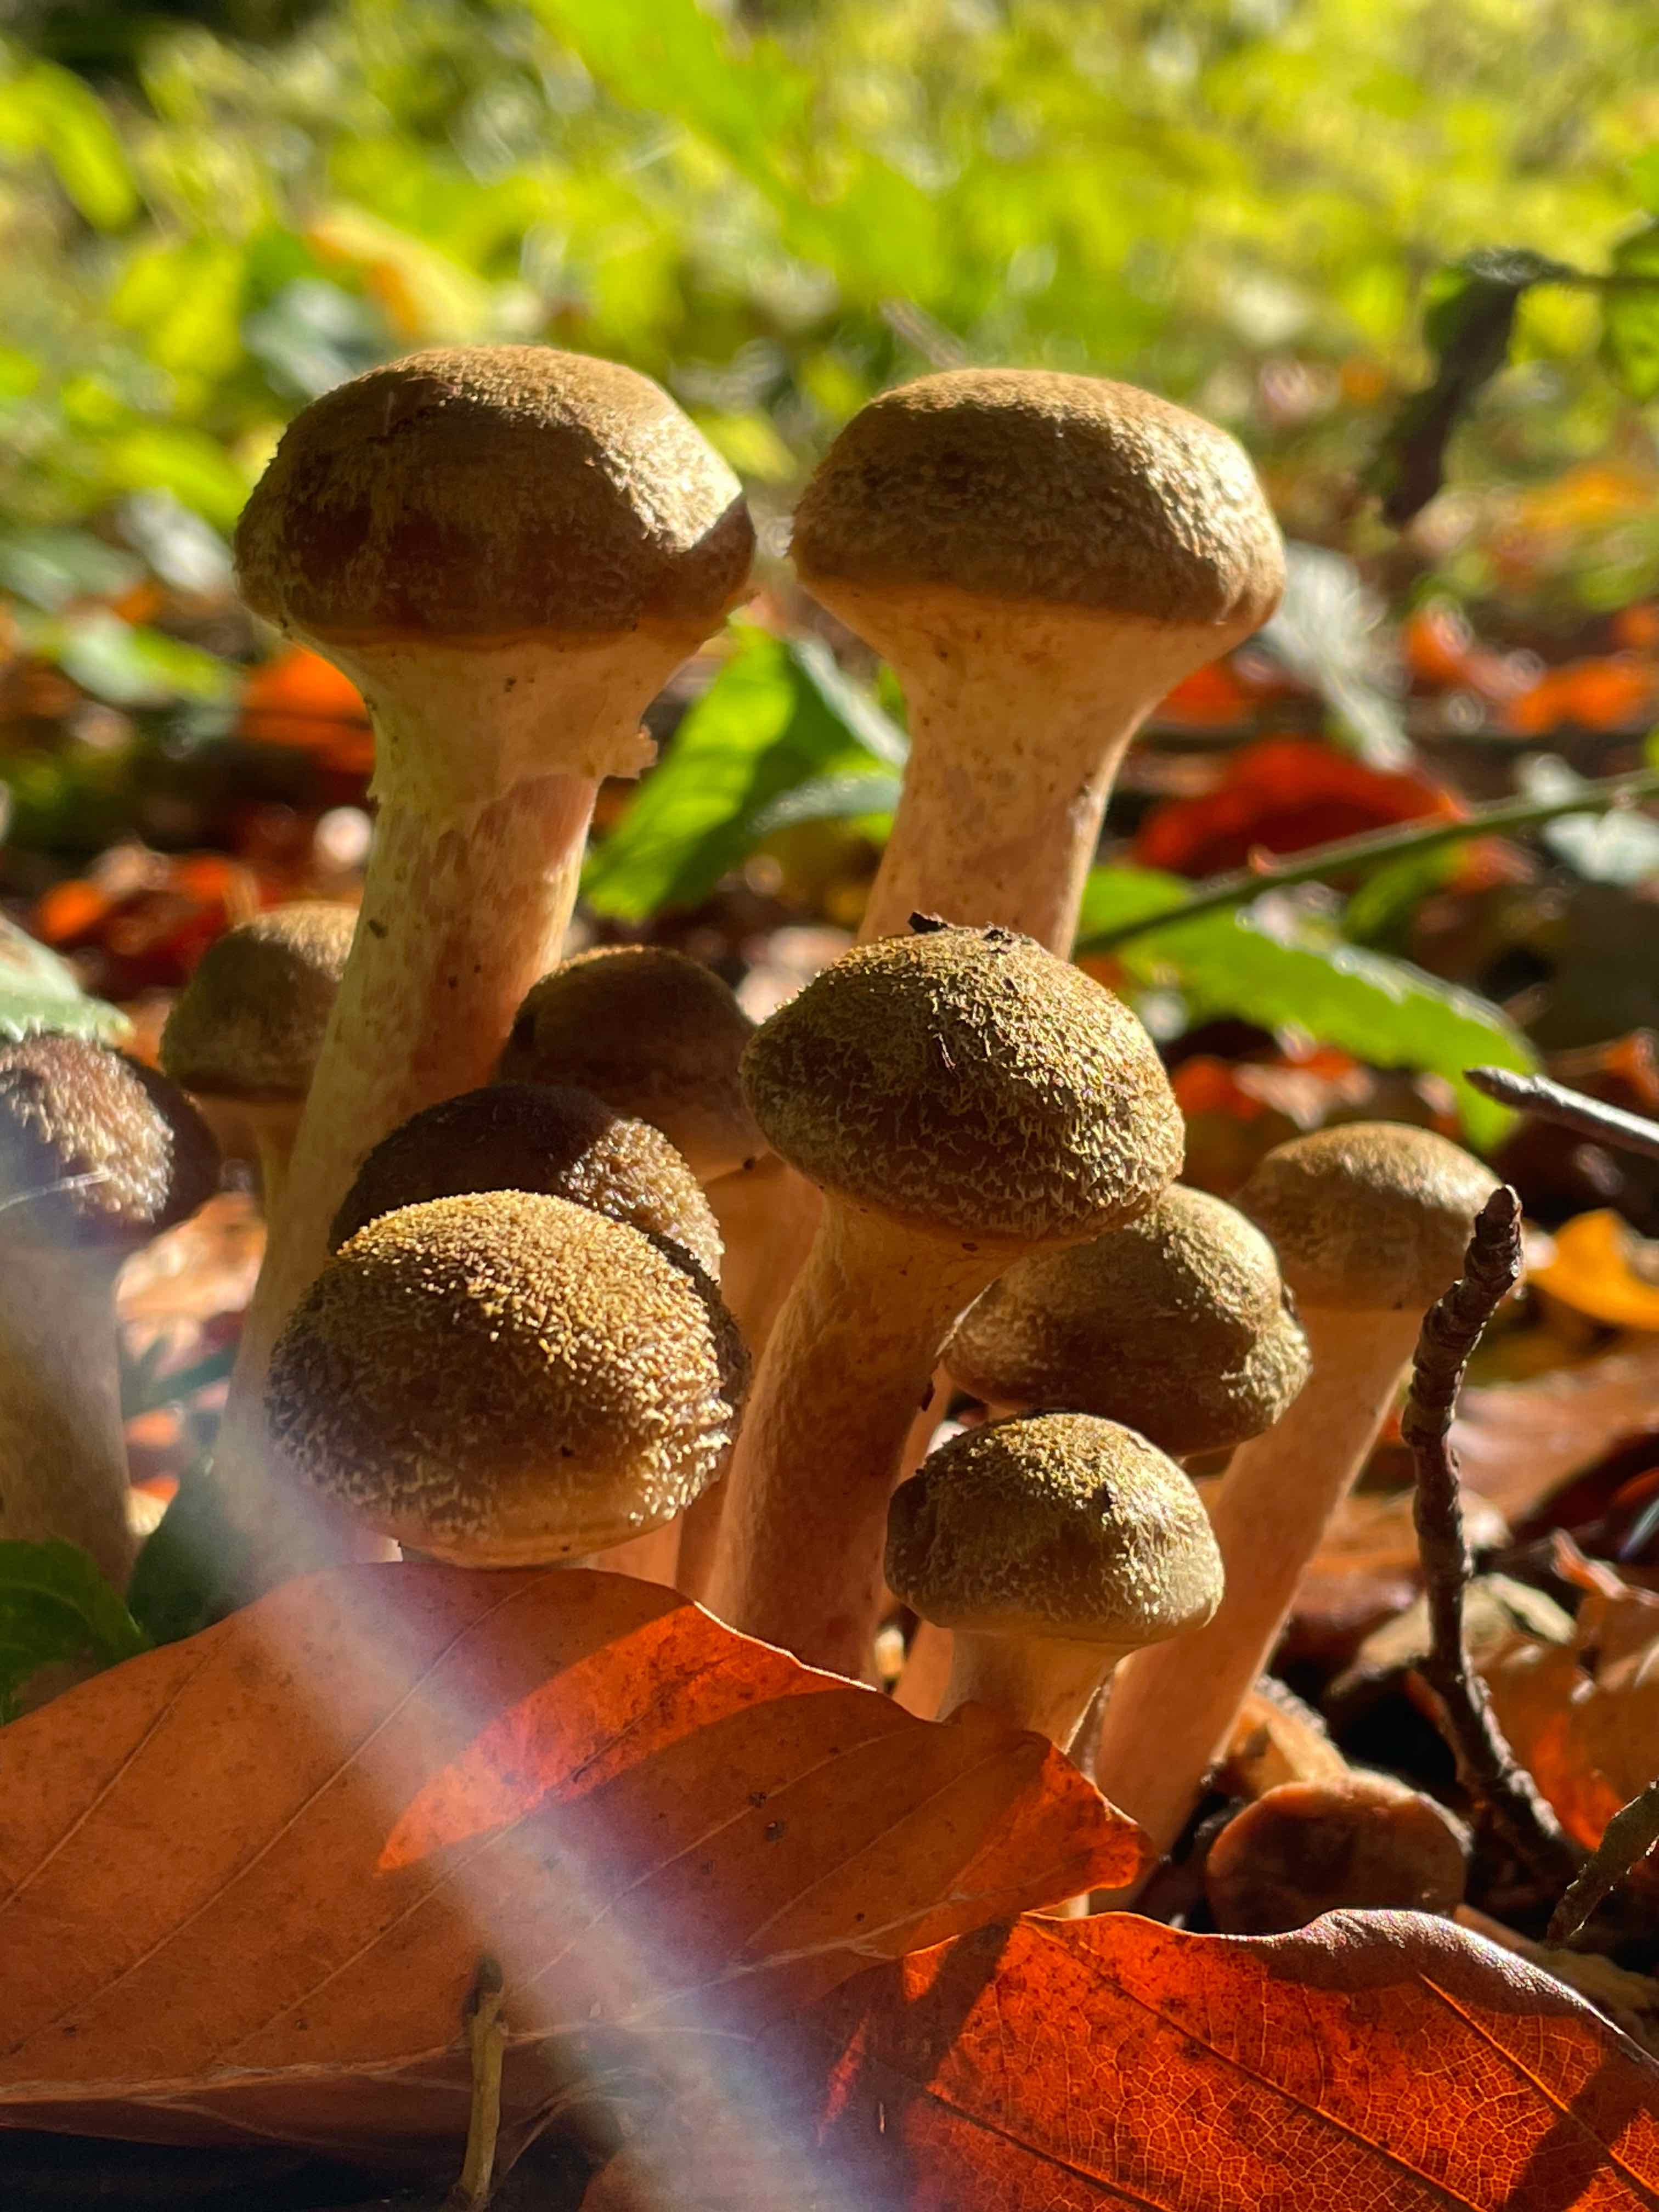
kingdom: Fungi
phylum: Basidiomycota
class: Agaricomycetes
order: Agaricales
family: Physalacriaceae
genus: Armillaria
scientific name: Armillaria
